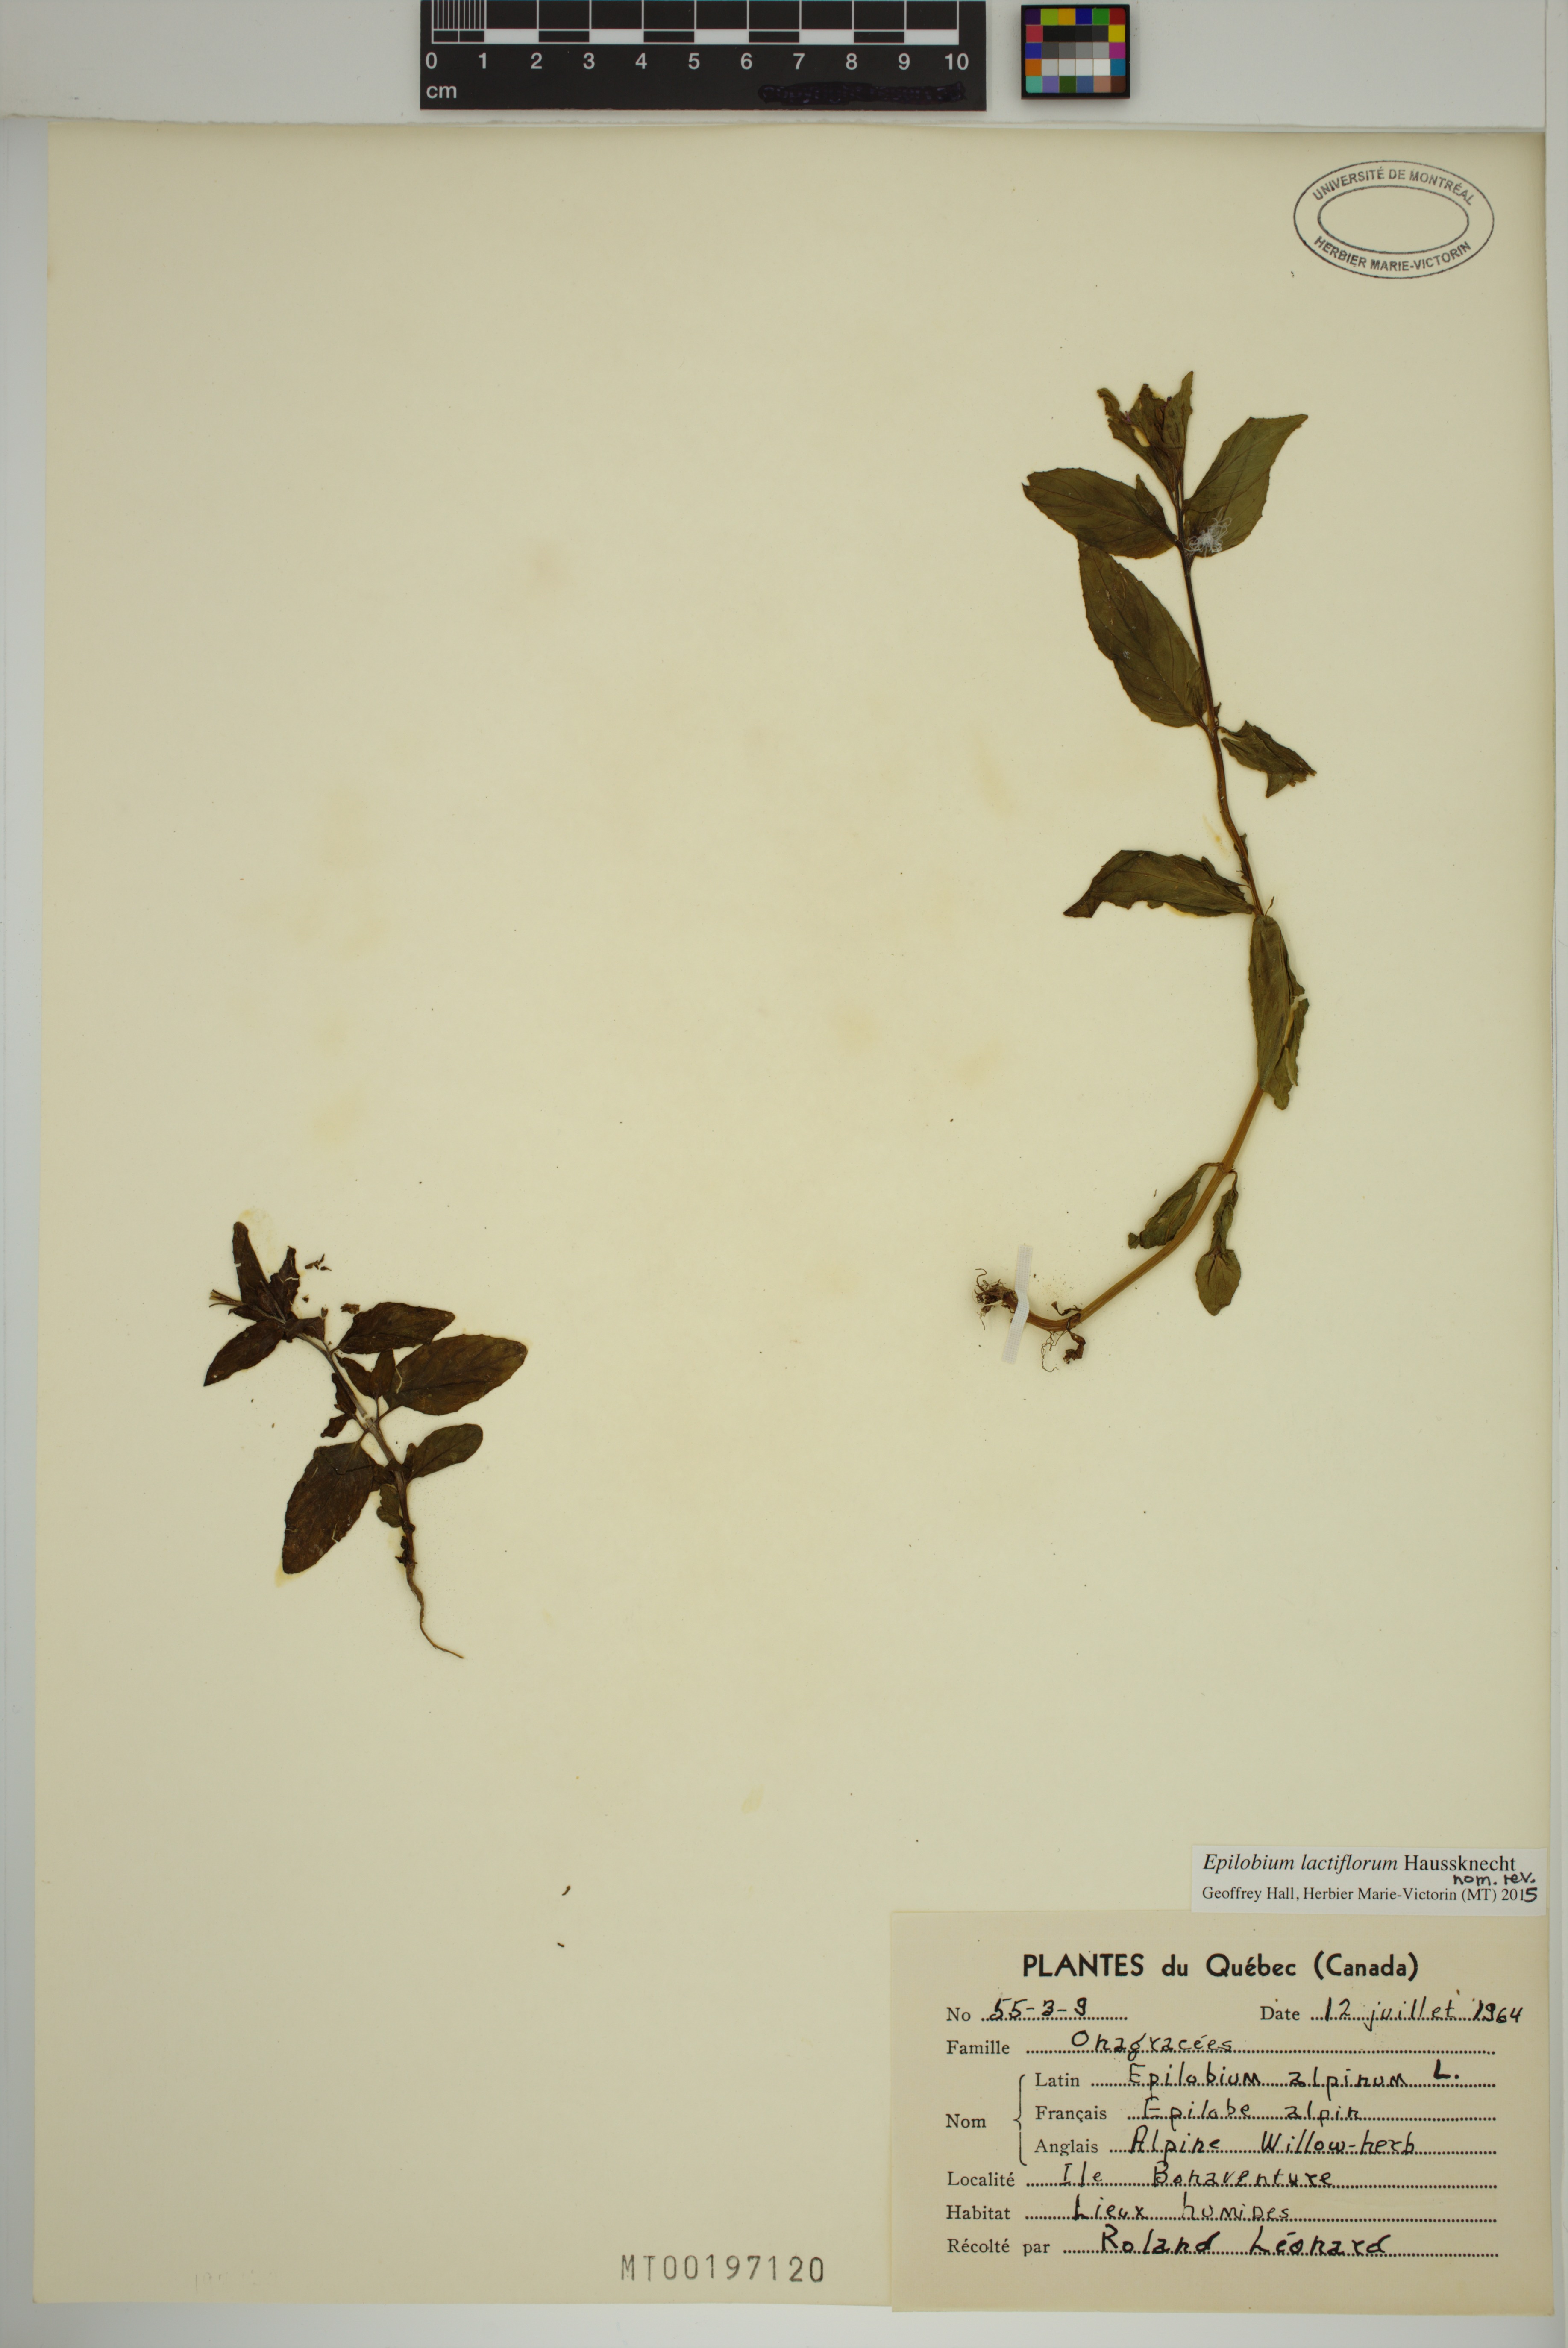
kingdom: Plantae
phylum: Tracheophyta
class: Magnoliopsida
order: Myrtales
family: Onagraceae
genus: Epilobium
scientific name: Epilobium lactiflorum
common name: Milkflower willowherb
